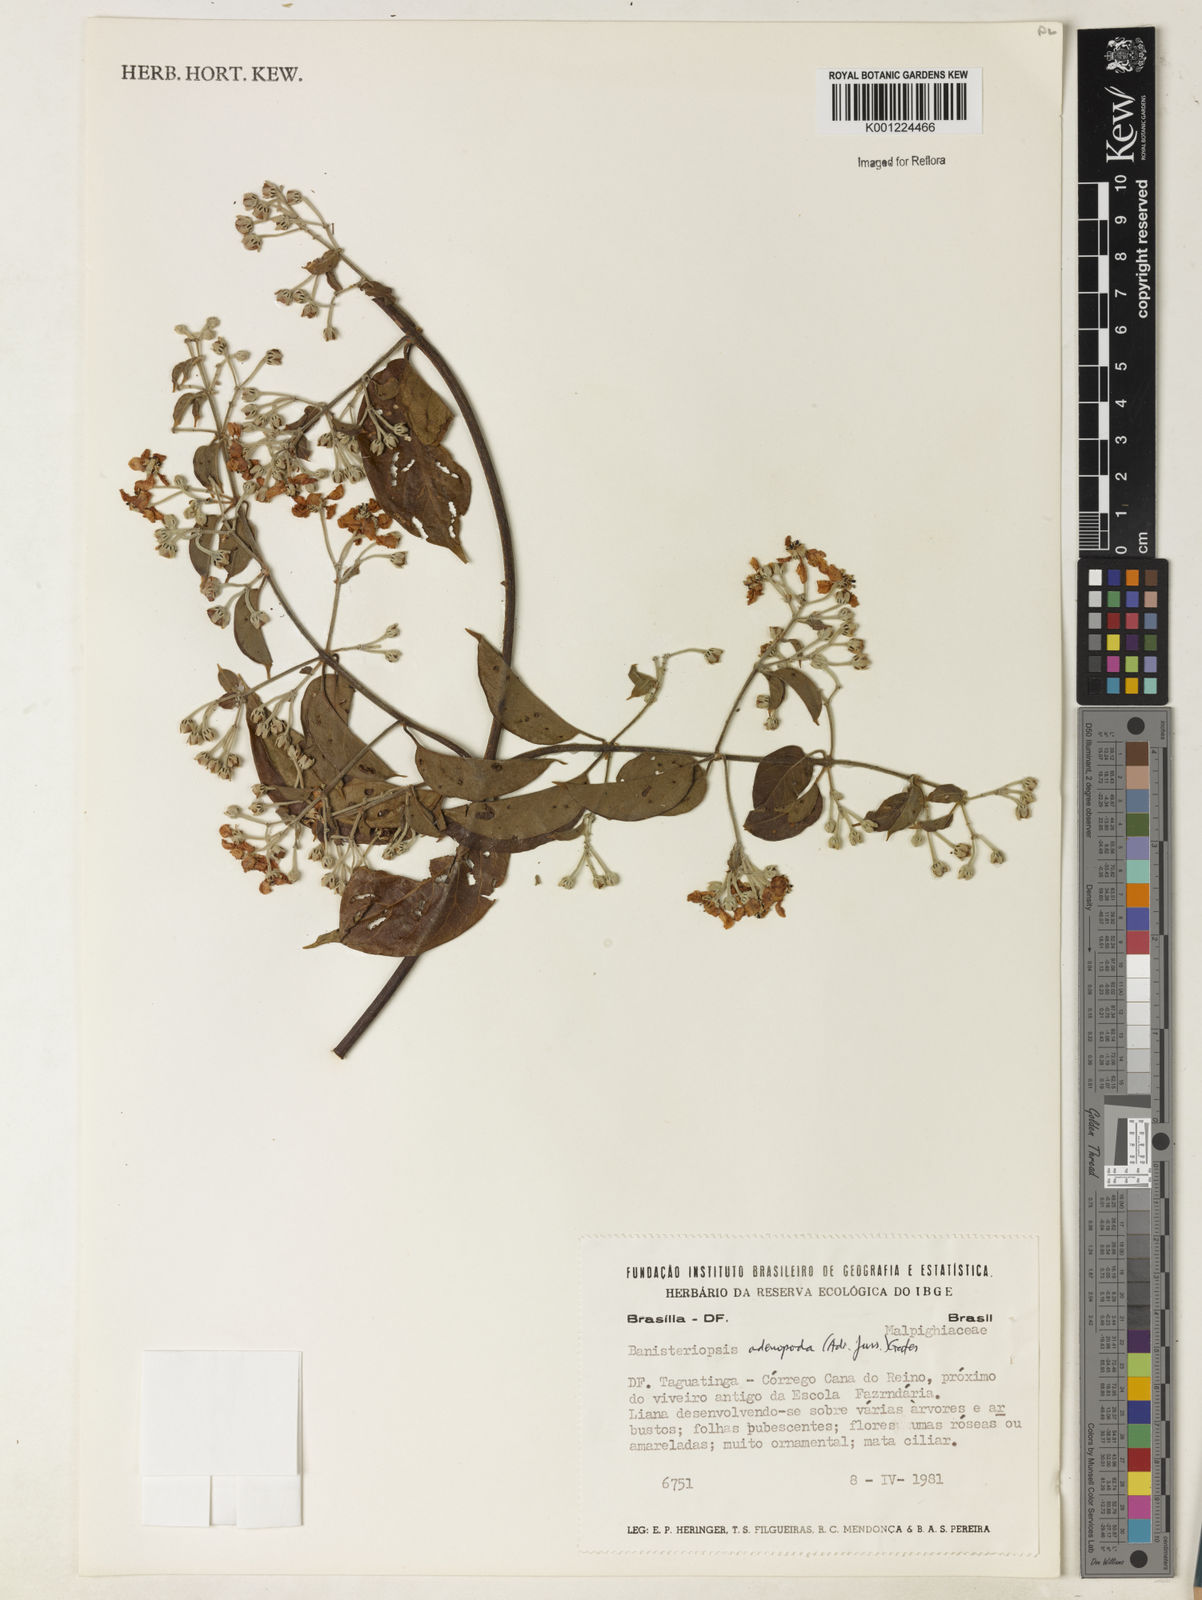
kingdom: Plantae
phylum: Tracheophyta
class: Magnoliopsida
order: Malpighiales
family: Malpighiaceae
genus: Banisteriopsis
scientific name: Banisteriopsis adenopoda
